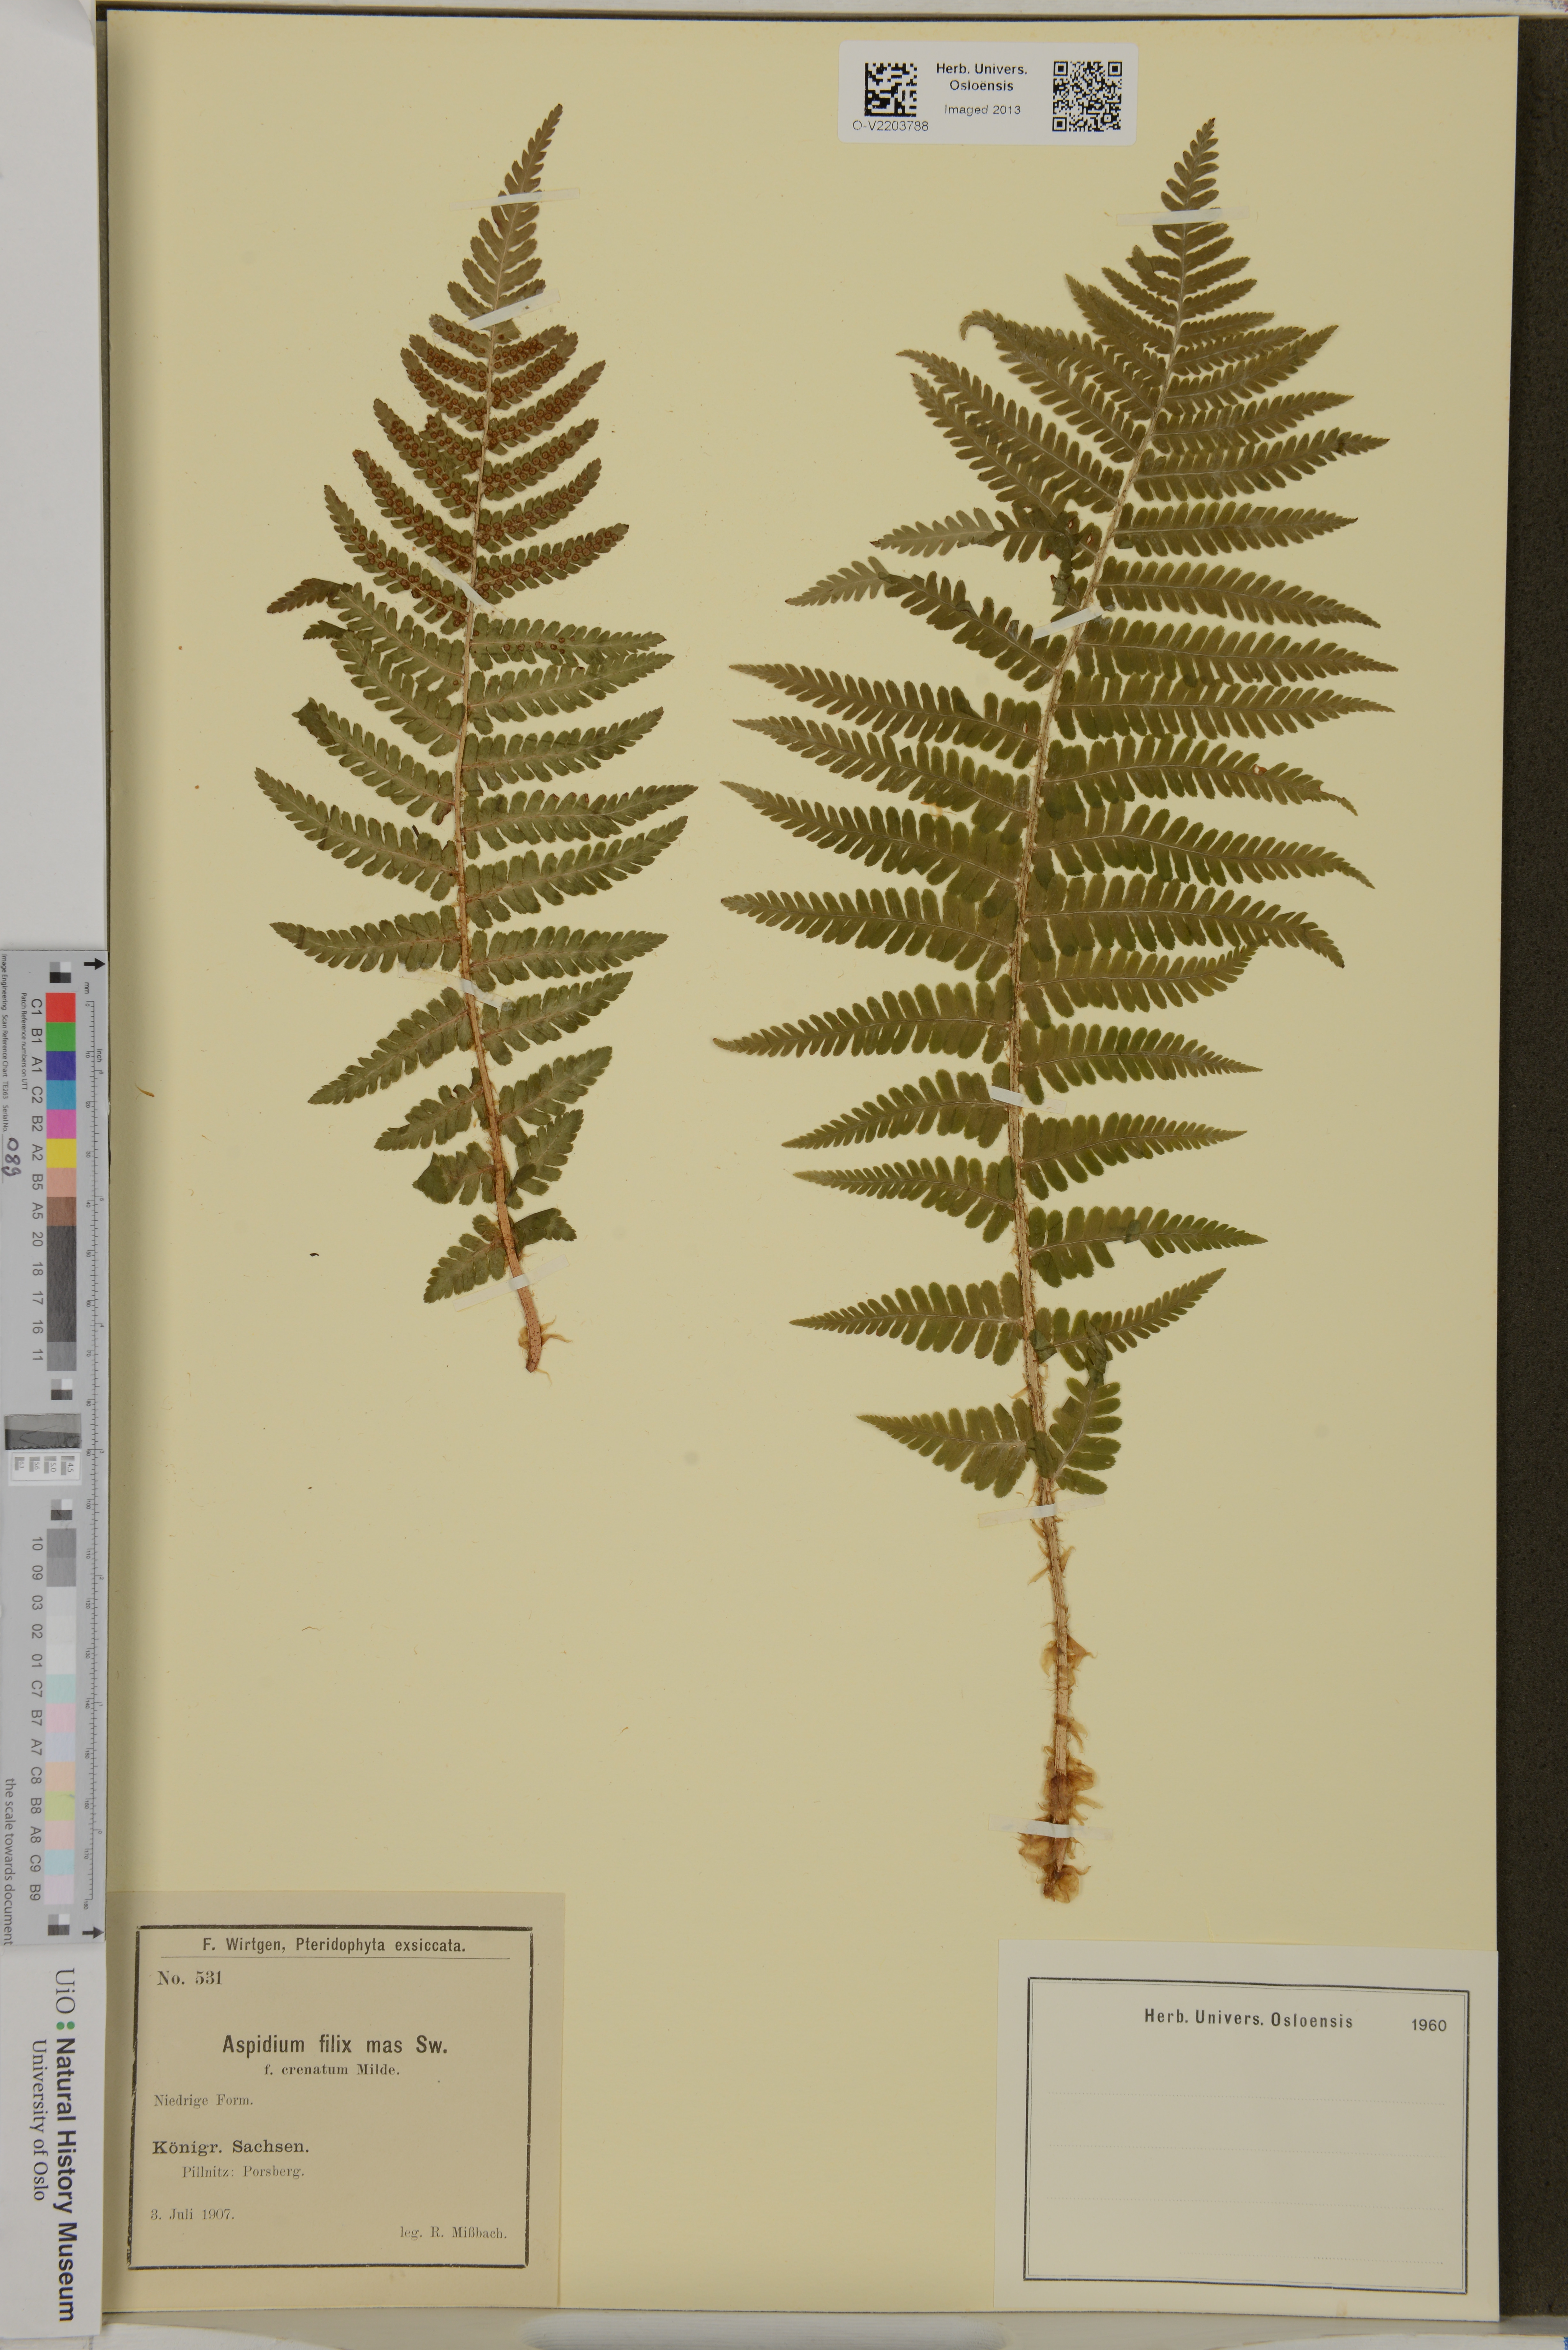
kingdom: Plantae
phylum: Tracheophyta
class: Polypodiopsida
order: Polypodiales
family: Dryopteridaceae
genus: Dryopteris
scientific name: Dryopteris filix-mas
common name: Male fern
